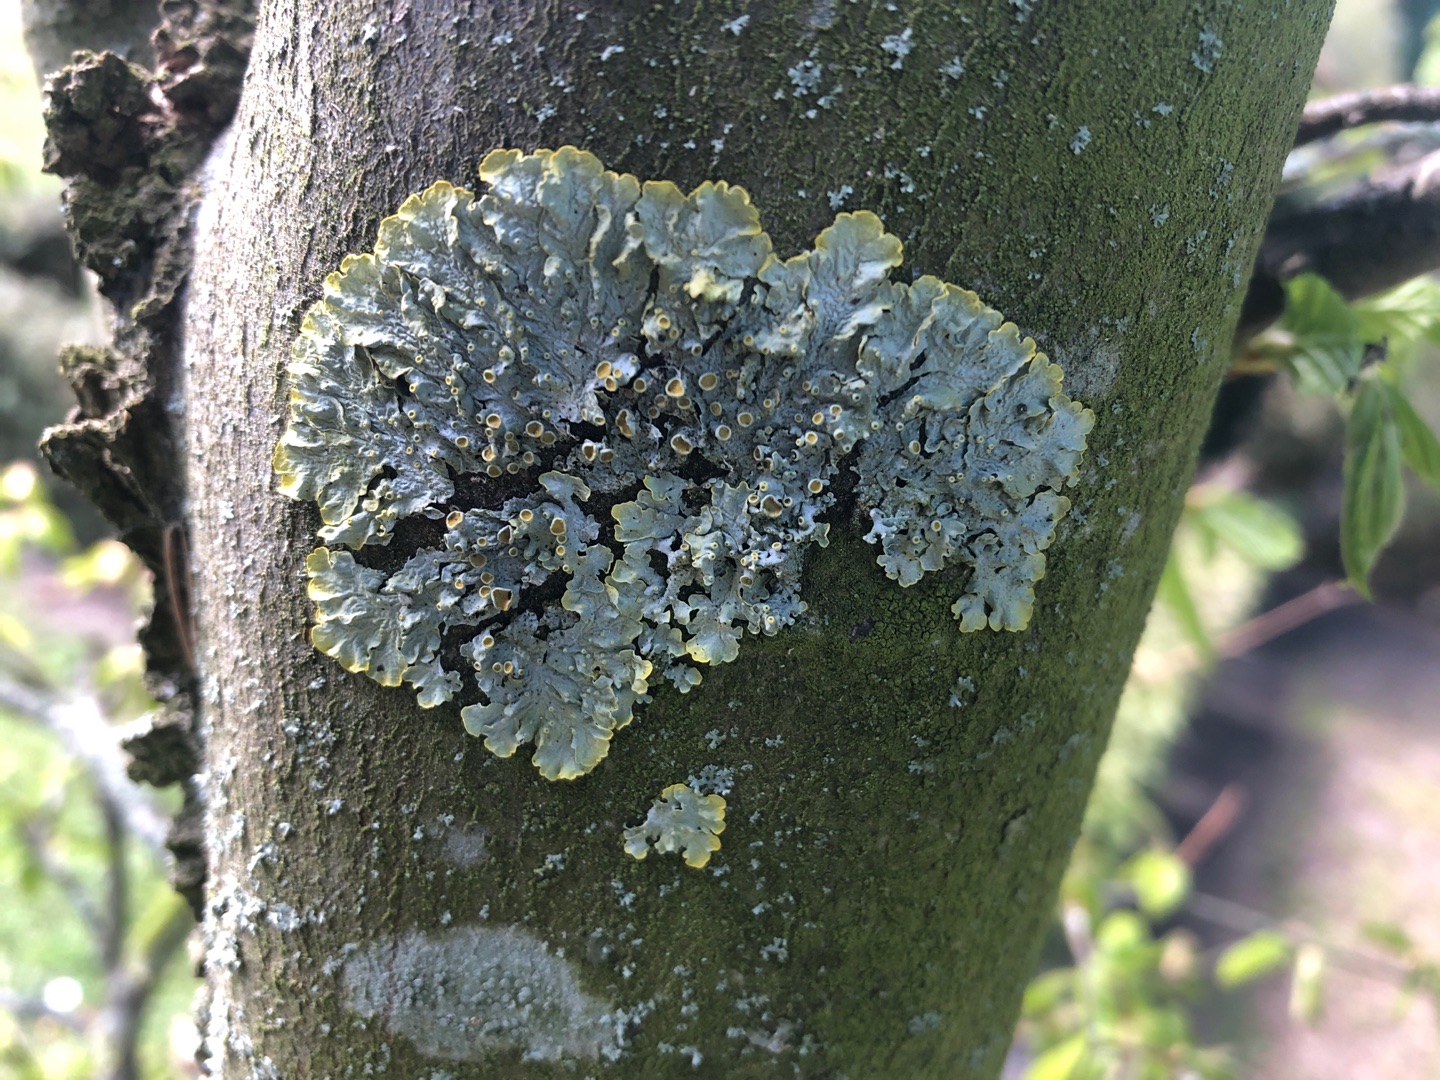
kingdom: Fungi
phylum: Ascomycota
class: Lecanoromycetes
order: Teloschistales
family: Teloschistaceae
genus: Xanthoria
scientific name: Xanthoria parietina
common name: Almindelig væggelav
